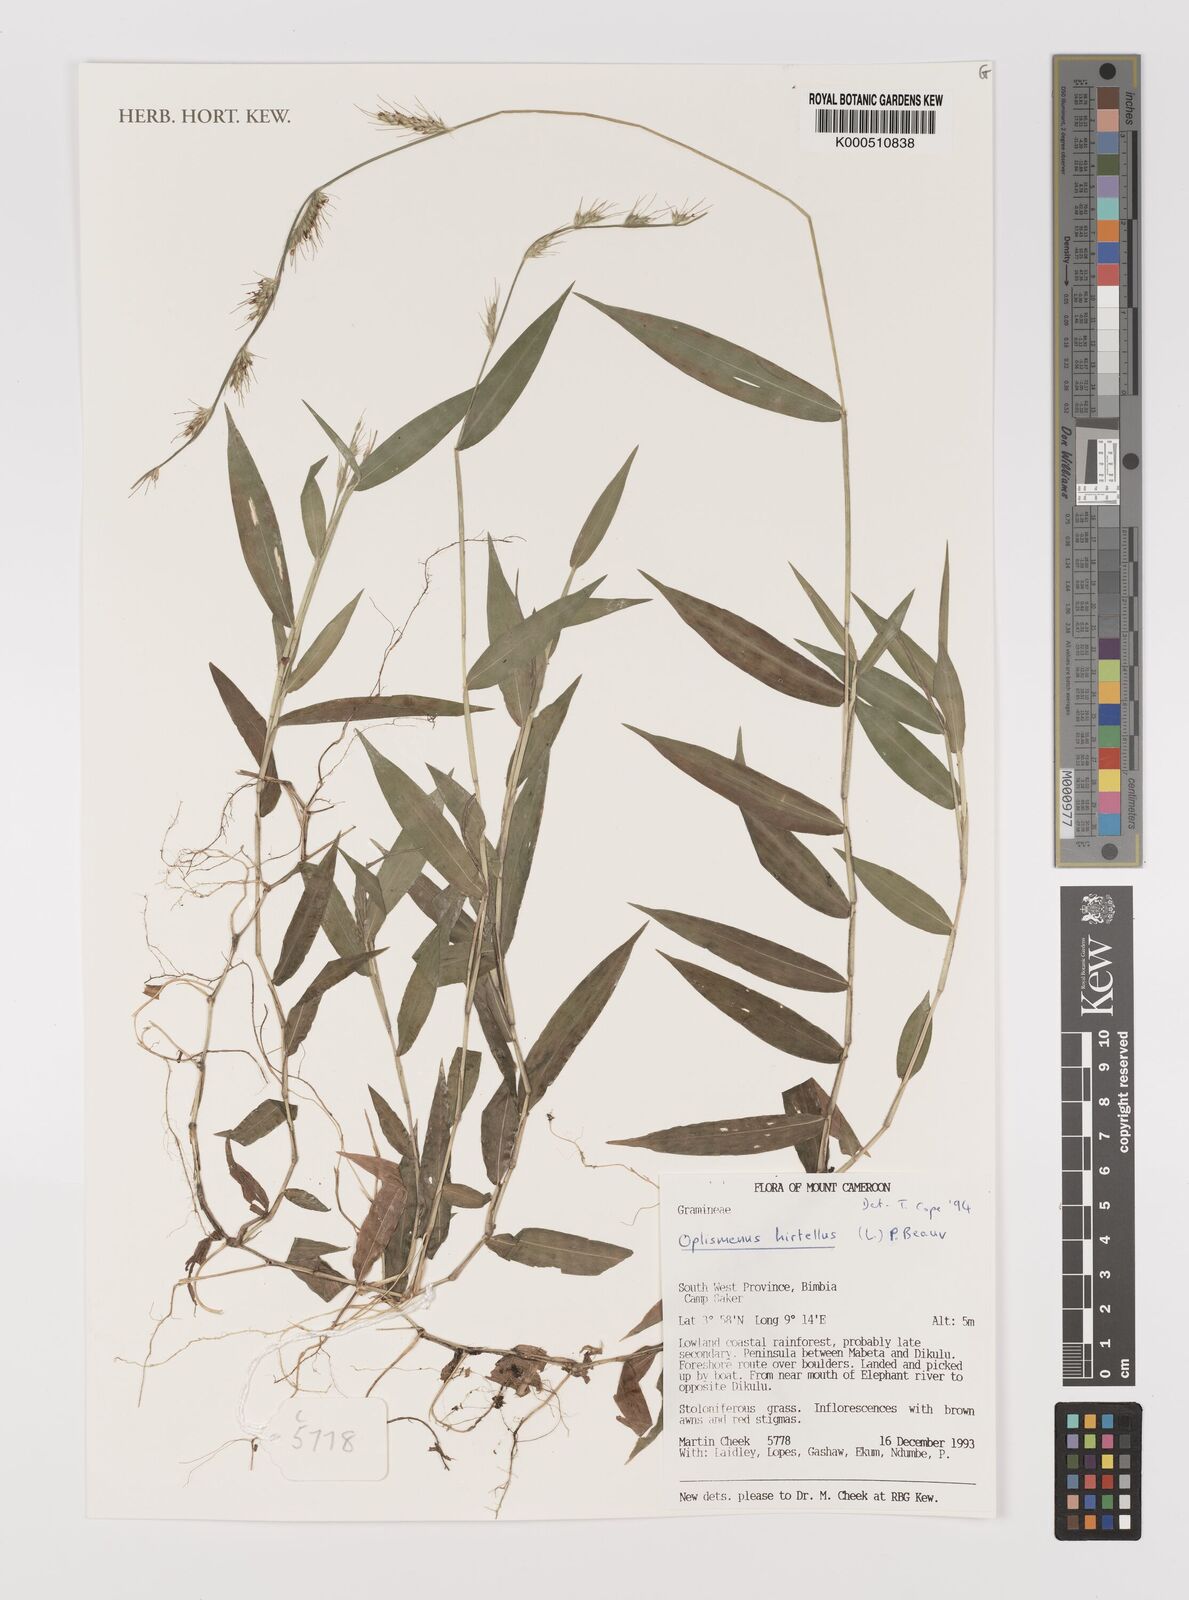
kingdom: Plantae
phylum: Tracheophyta
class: Liliopsida
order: Poales
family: Poaceae
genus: Oplismenus
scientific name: Oplismenus hirtellus
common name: Basketgrass
